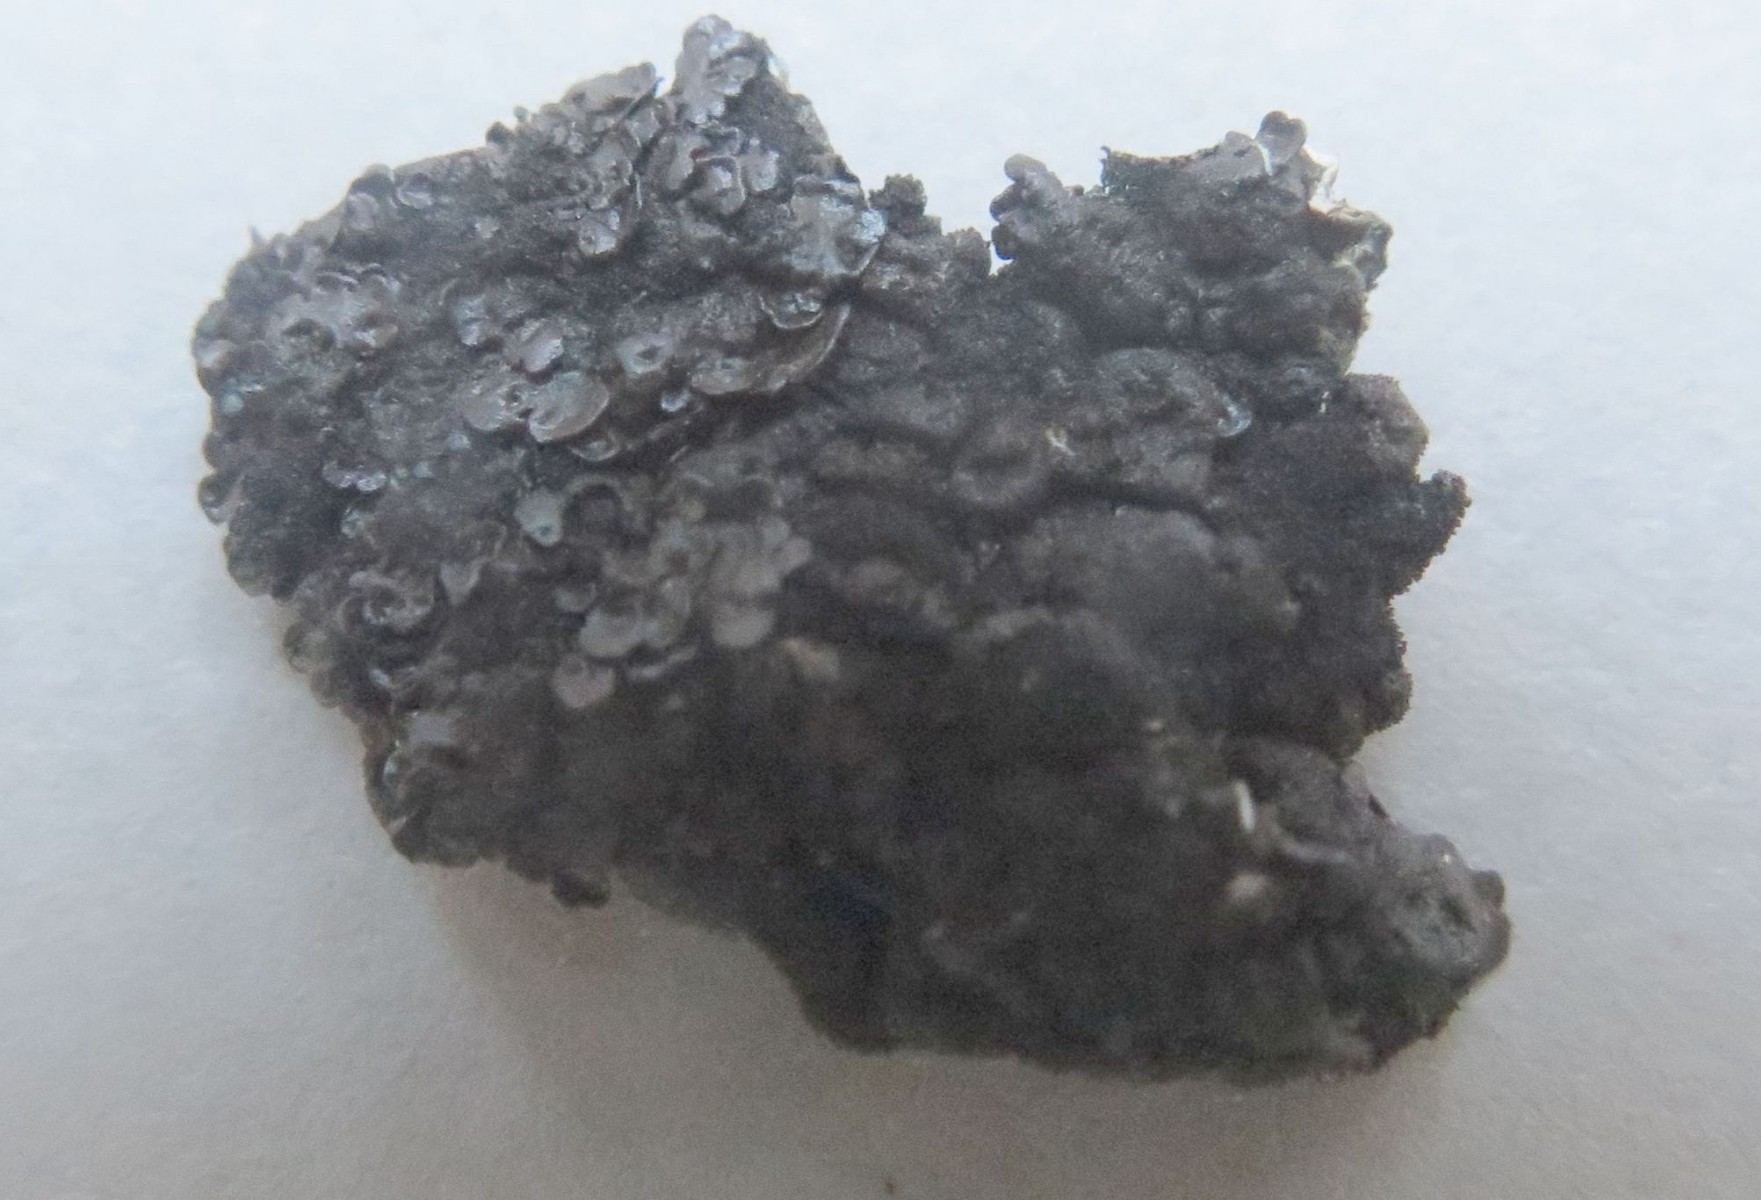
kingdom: Fungi
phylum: Ascomycota
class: Lecanoromycetes
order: Lecanorales
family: Parmeliaceae
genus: Melanelixia
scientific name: Melanelixia fuliginosa
